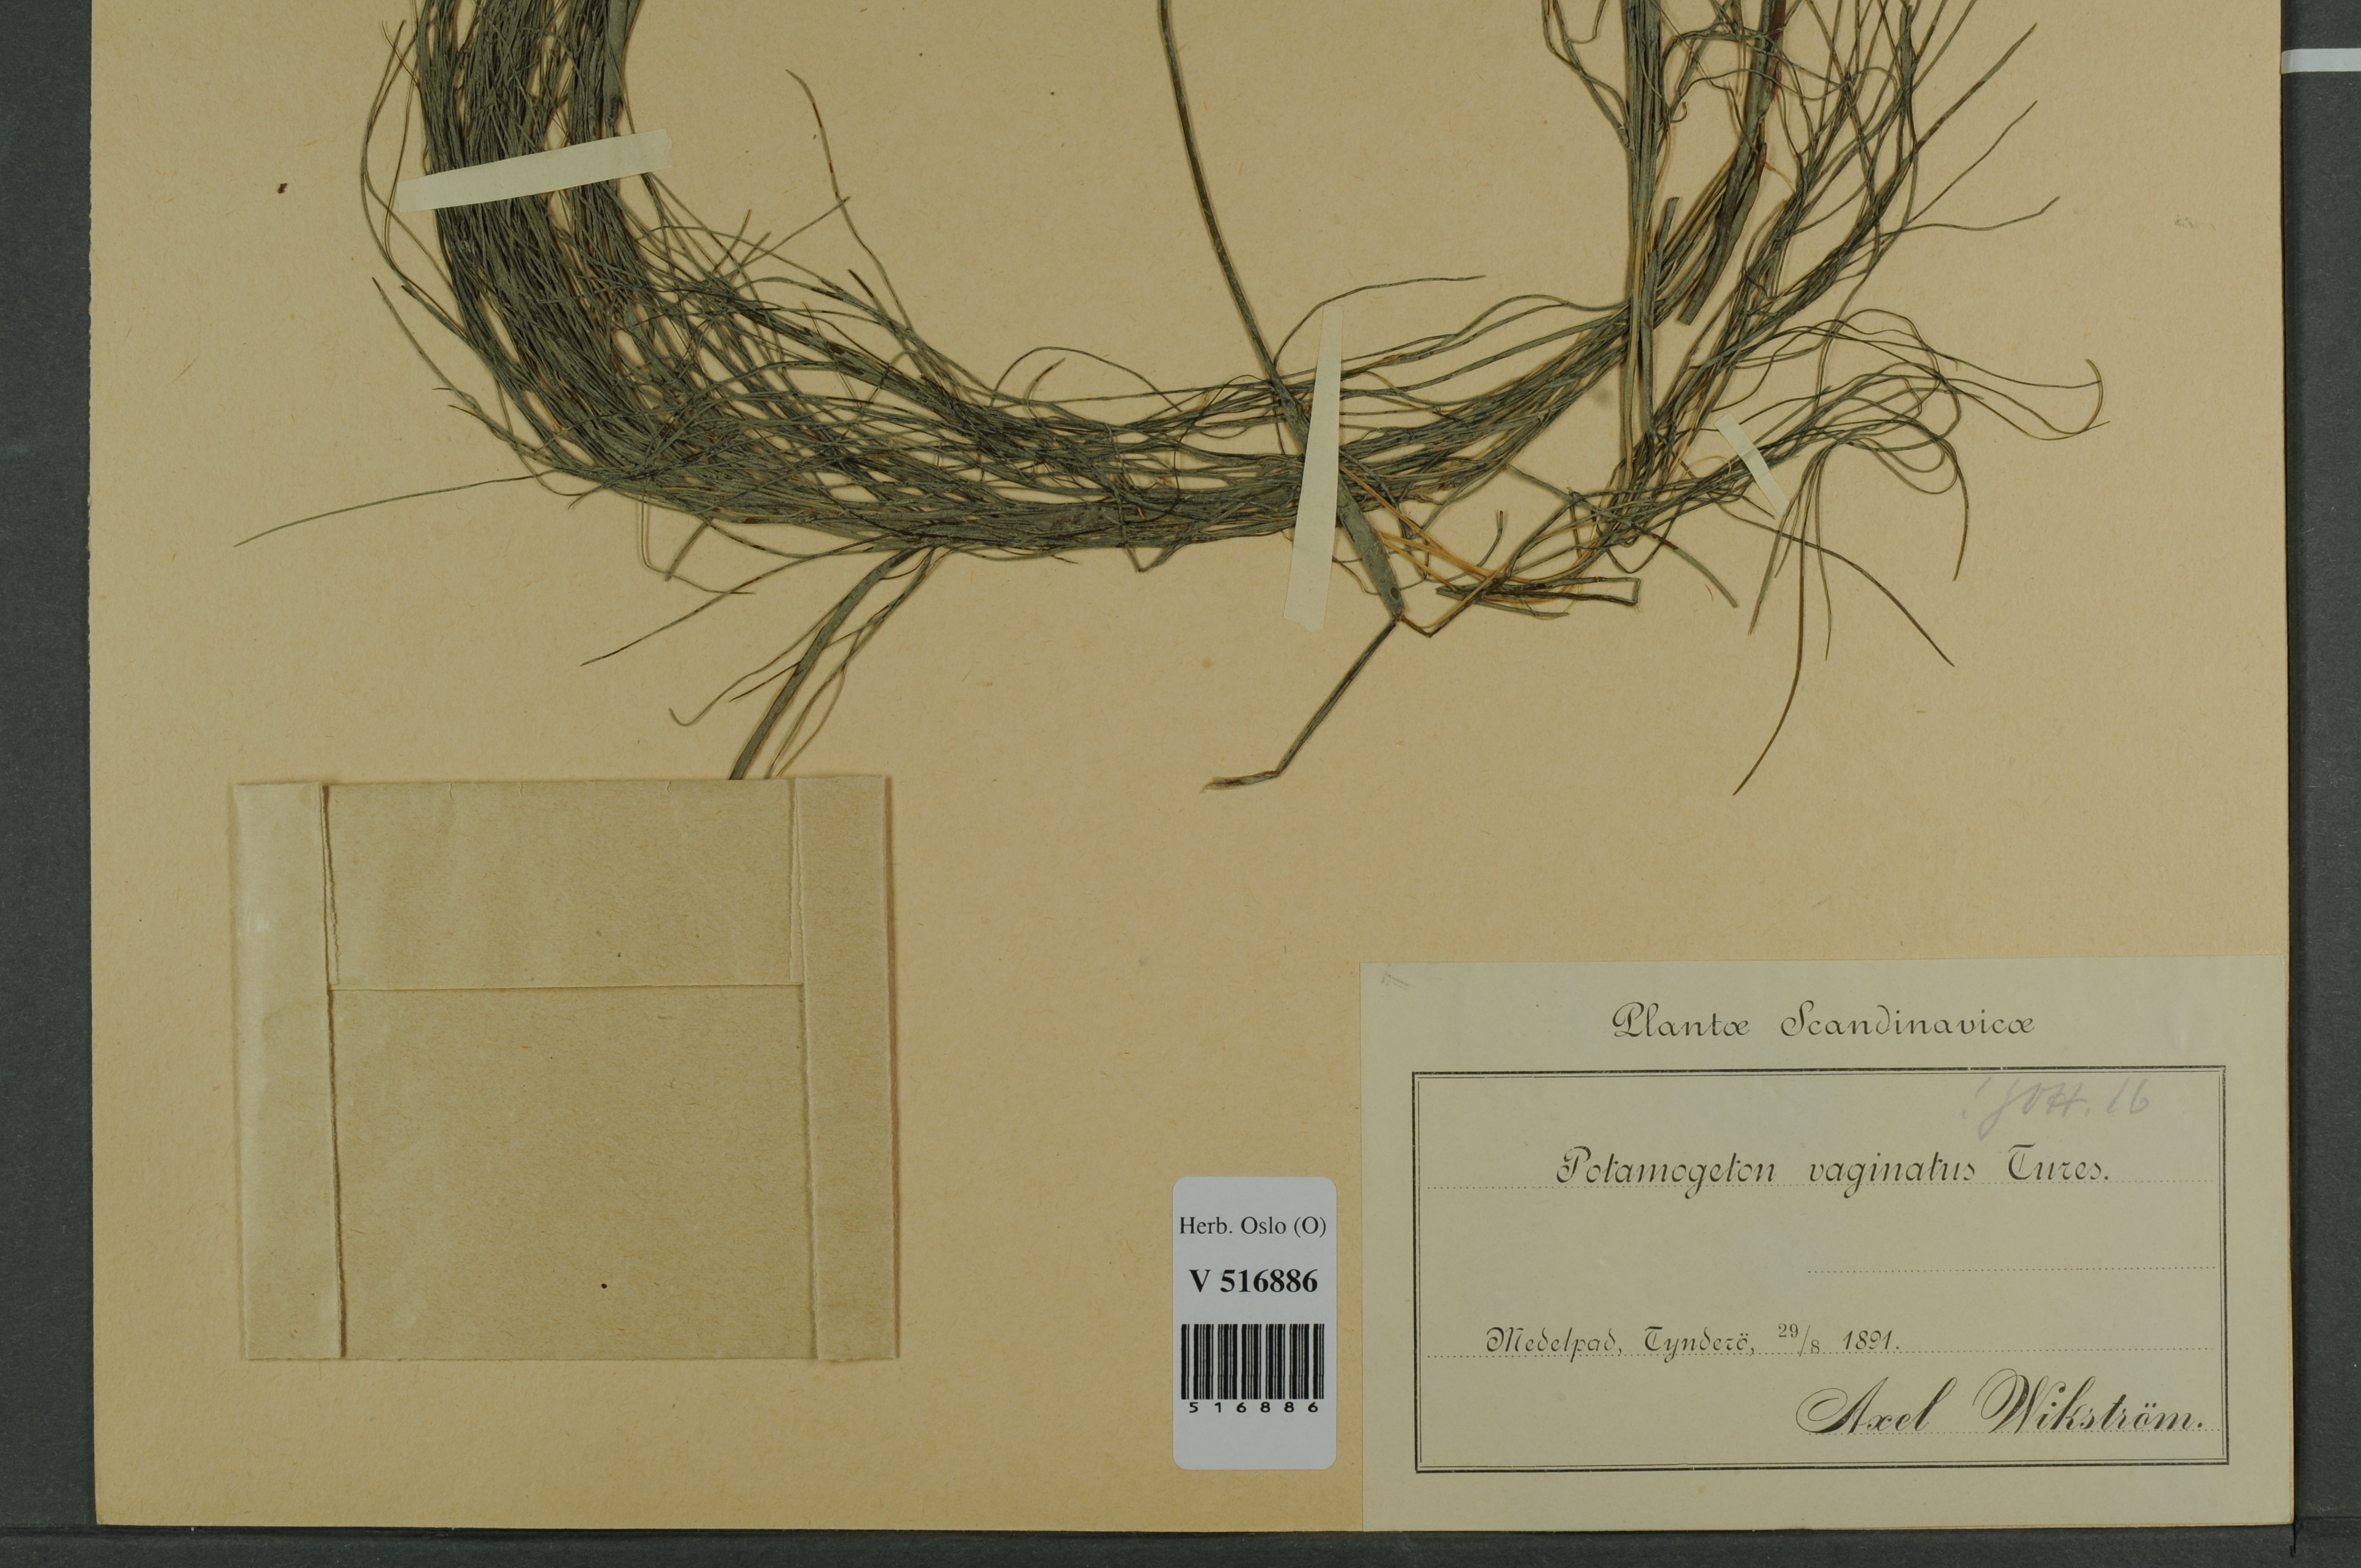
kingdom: Plantae
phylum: Tracheophyta
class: Liliopsida
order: Alismatales
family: Potamogetonaceae
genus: Stuckenia
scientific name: Stuckenia vaginata
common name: Big-sheathed pondweed
